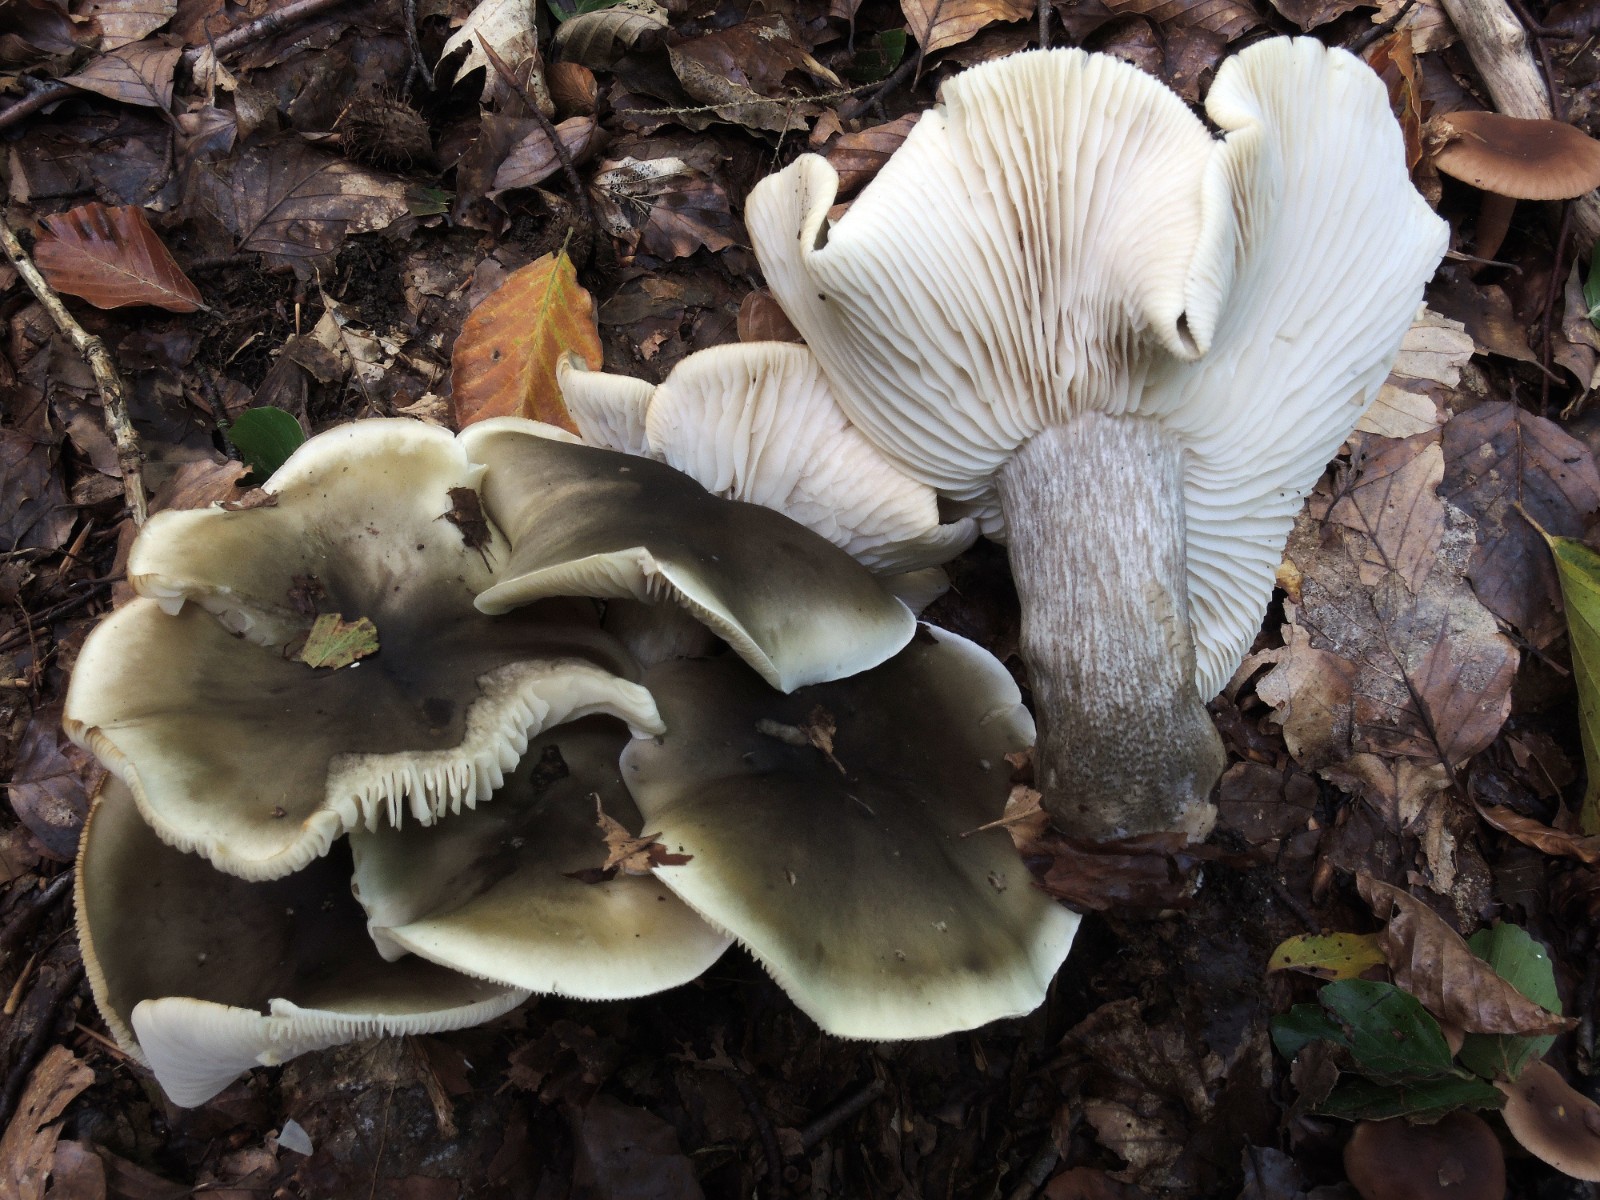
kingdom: Fungi
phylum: Basidiomycota
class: Agaricomycetes
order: Agaricales
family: Tricholomataceae
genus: Tricholoma
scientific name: Tricholoma saponaceum
